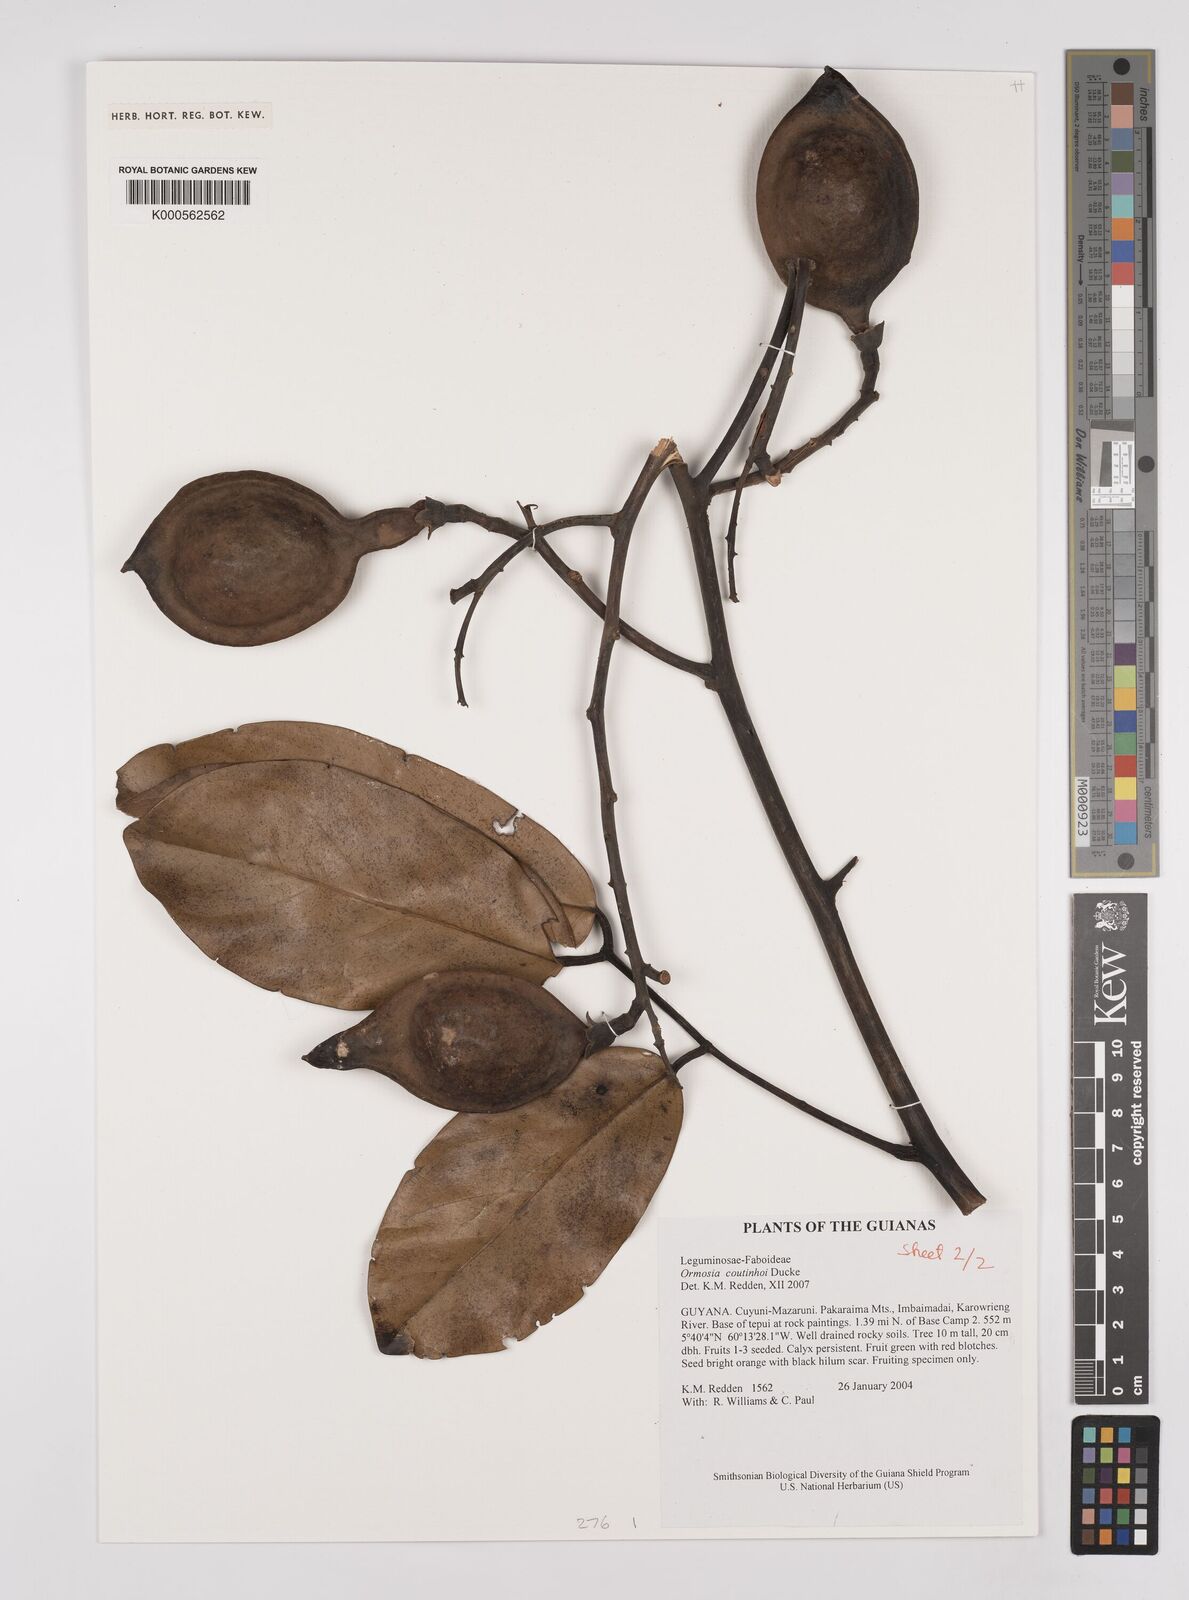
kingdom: Plantae
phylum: Tracheophyta
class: Magnoliopsida
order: Fabales
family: Fabaceae
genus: Ormosia
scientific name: Ormosia coutinhoi
